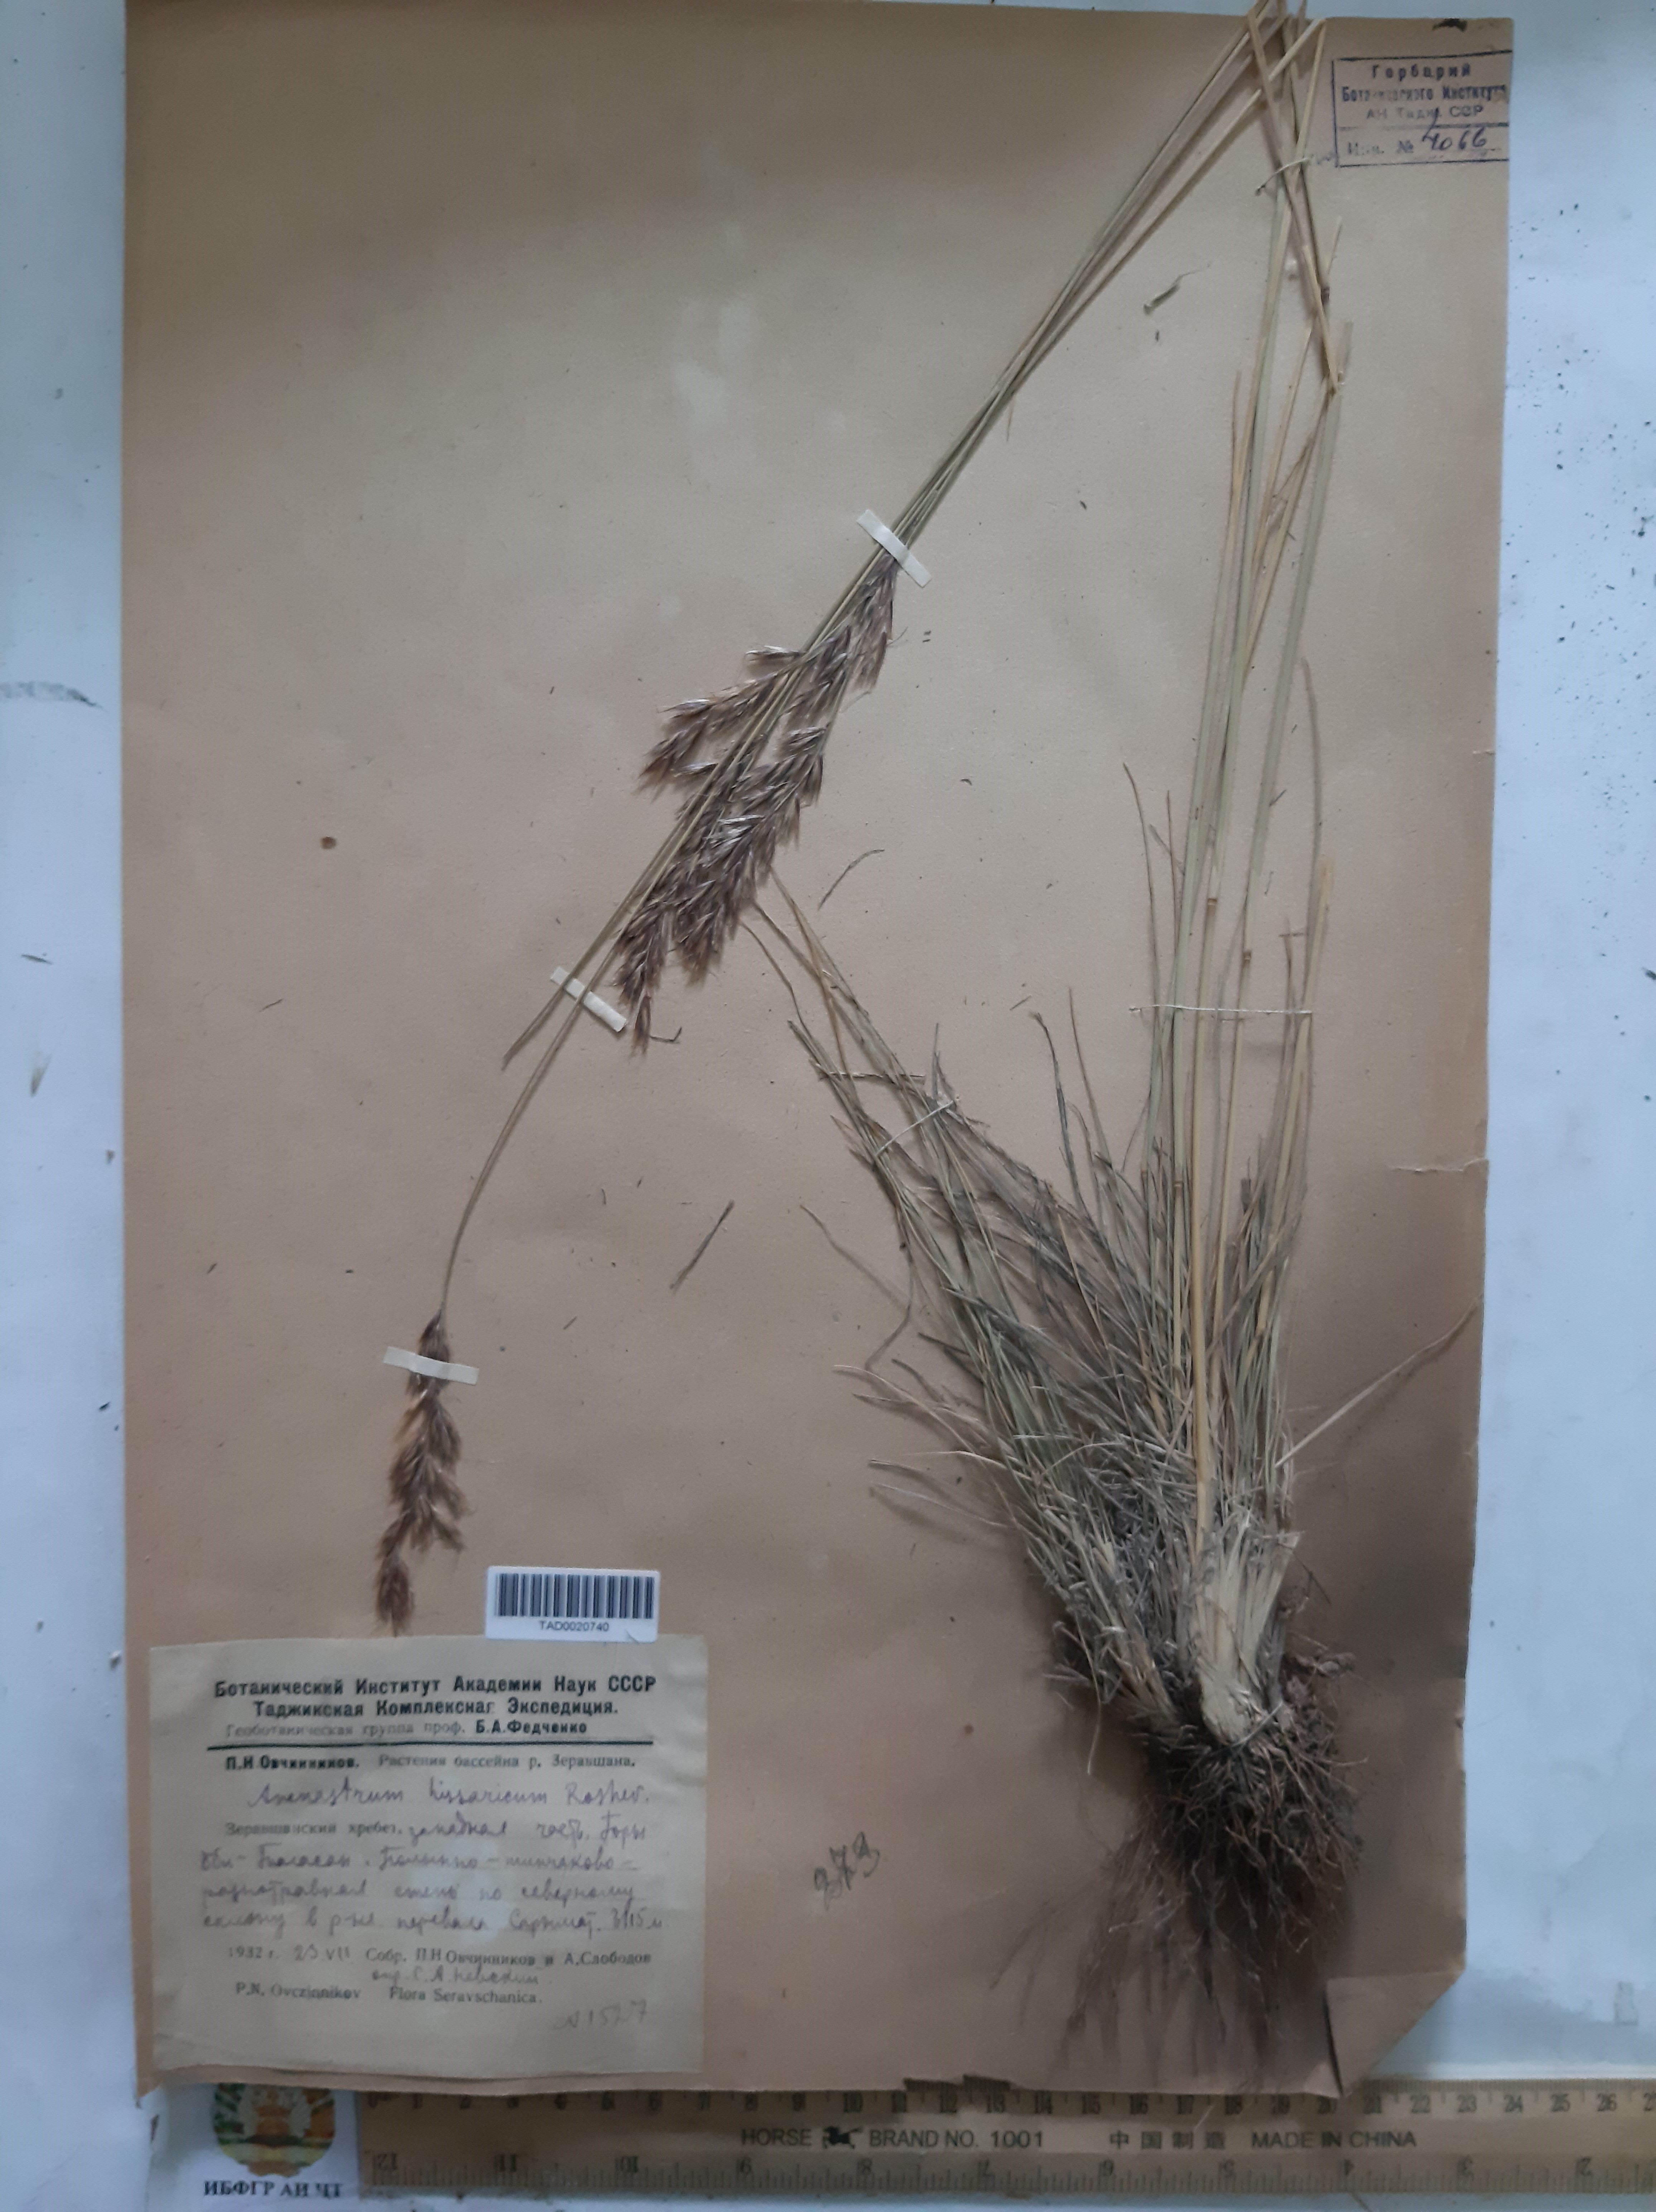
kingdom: Plantae
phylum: Tracheophyta
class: Liliopsida
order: Poales
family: Poaceae
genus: Helictotrichon
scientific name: Helictotrichon hissaricum
